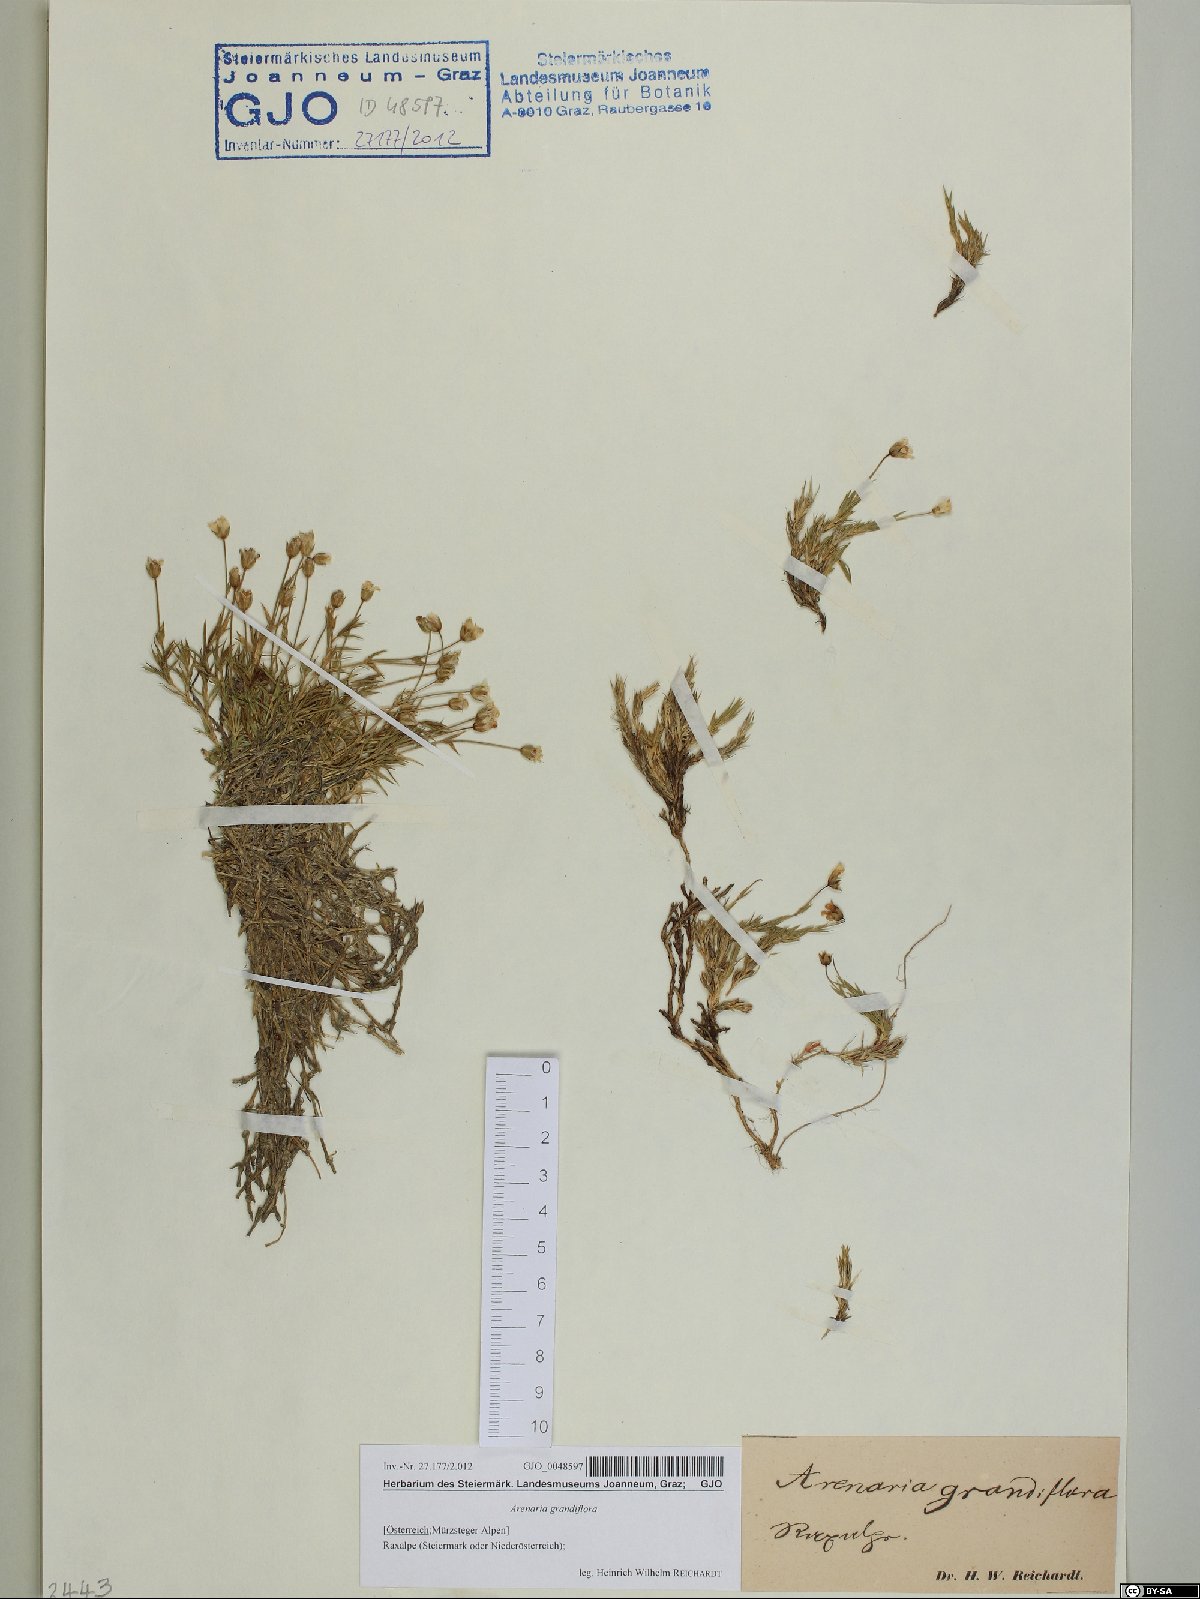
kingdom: Plantae
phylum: Tracheophyta
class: Magnoliopsida
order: Caryophyllales
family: Caryophyllaceae
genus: Arenaria
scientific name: Arenaria grandiflora
